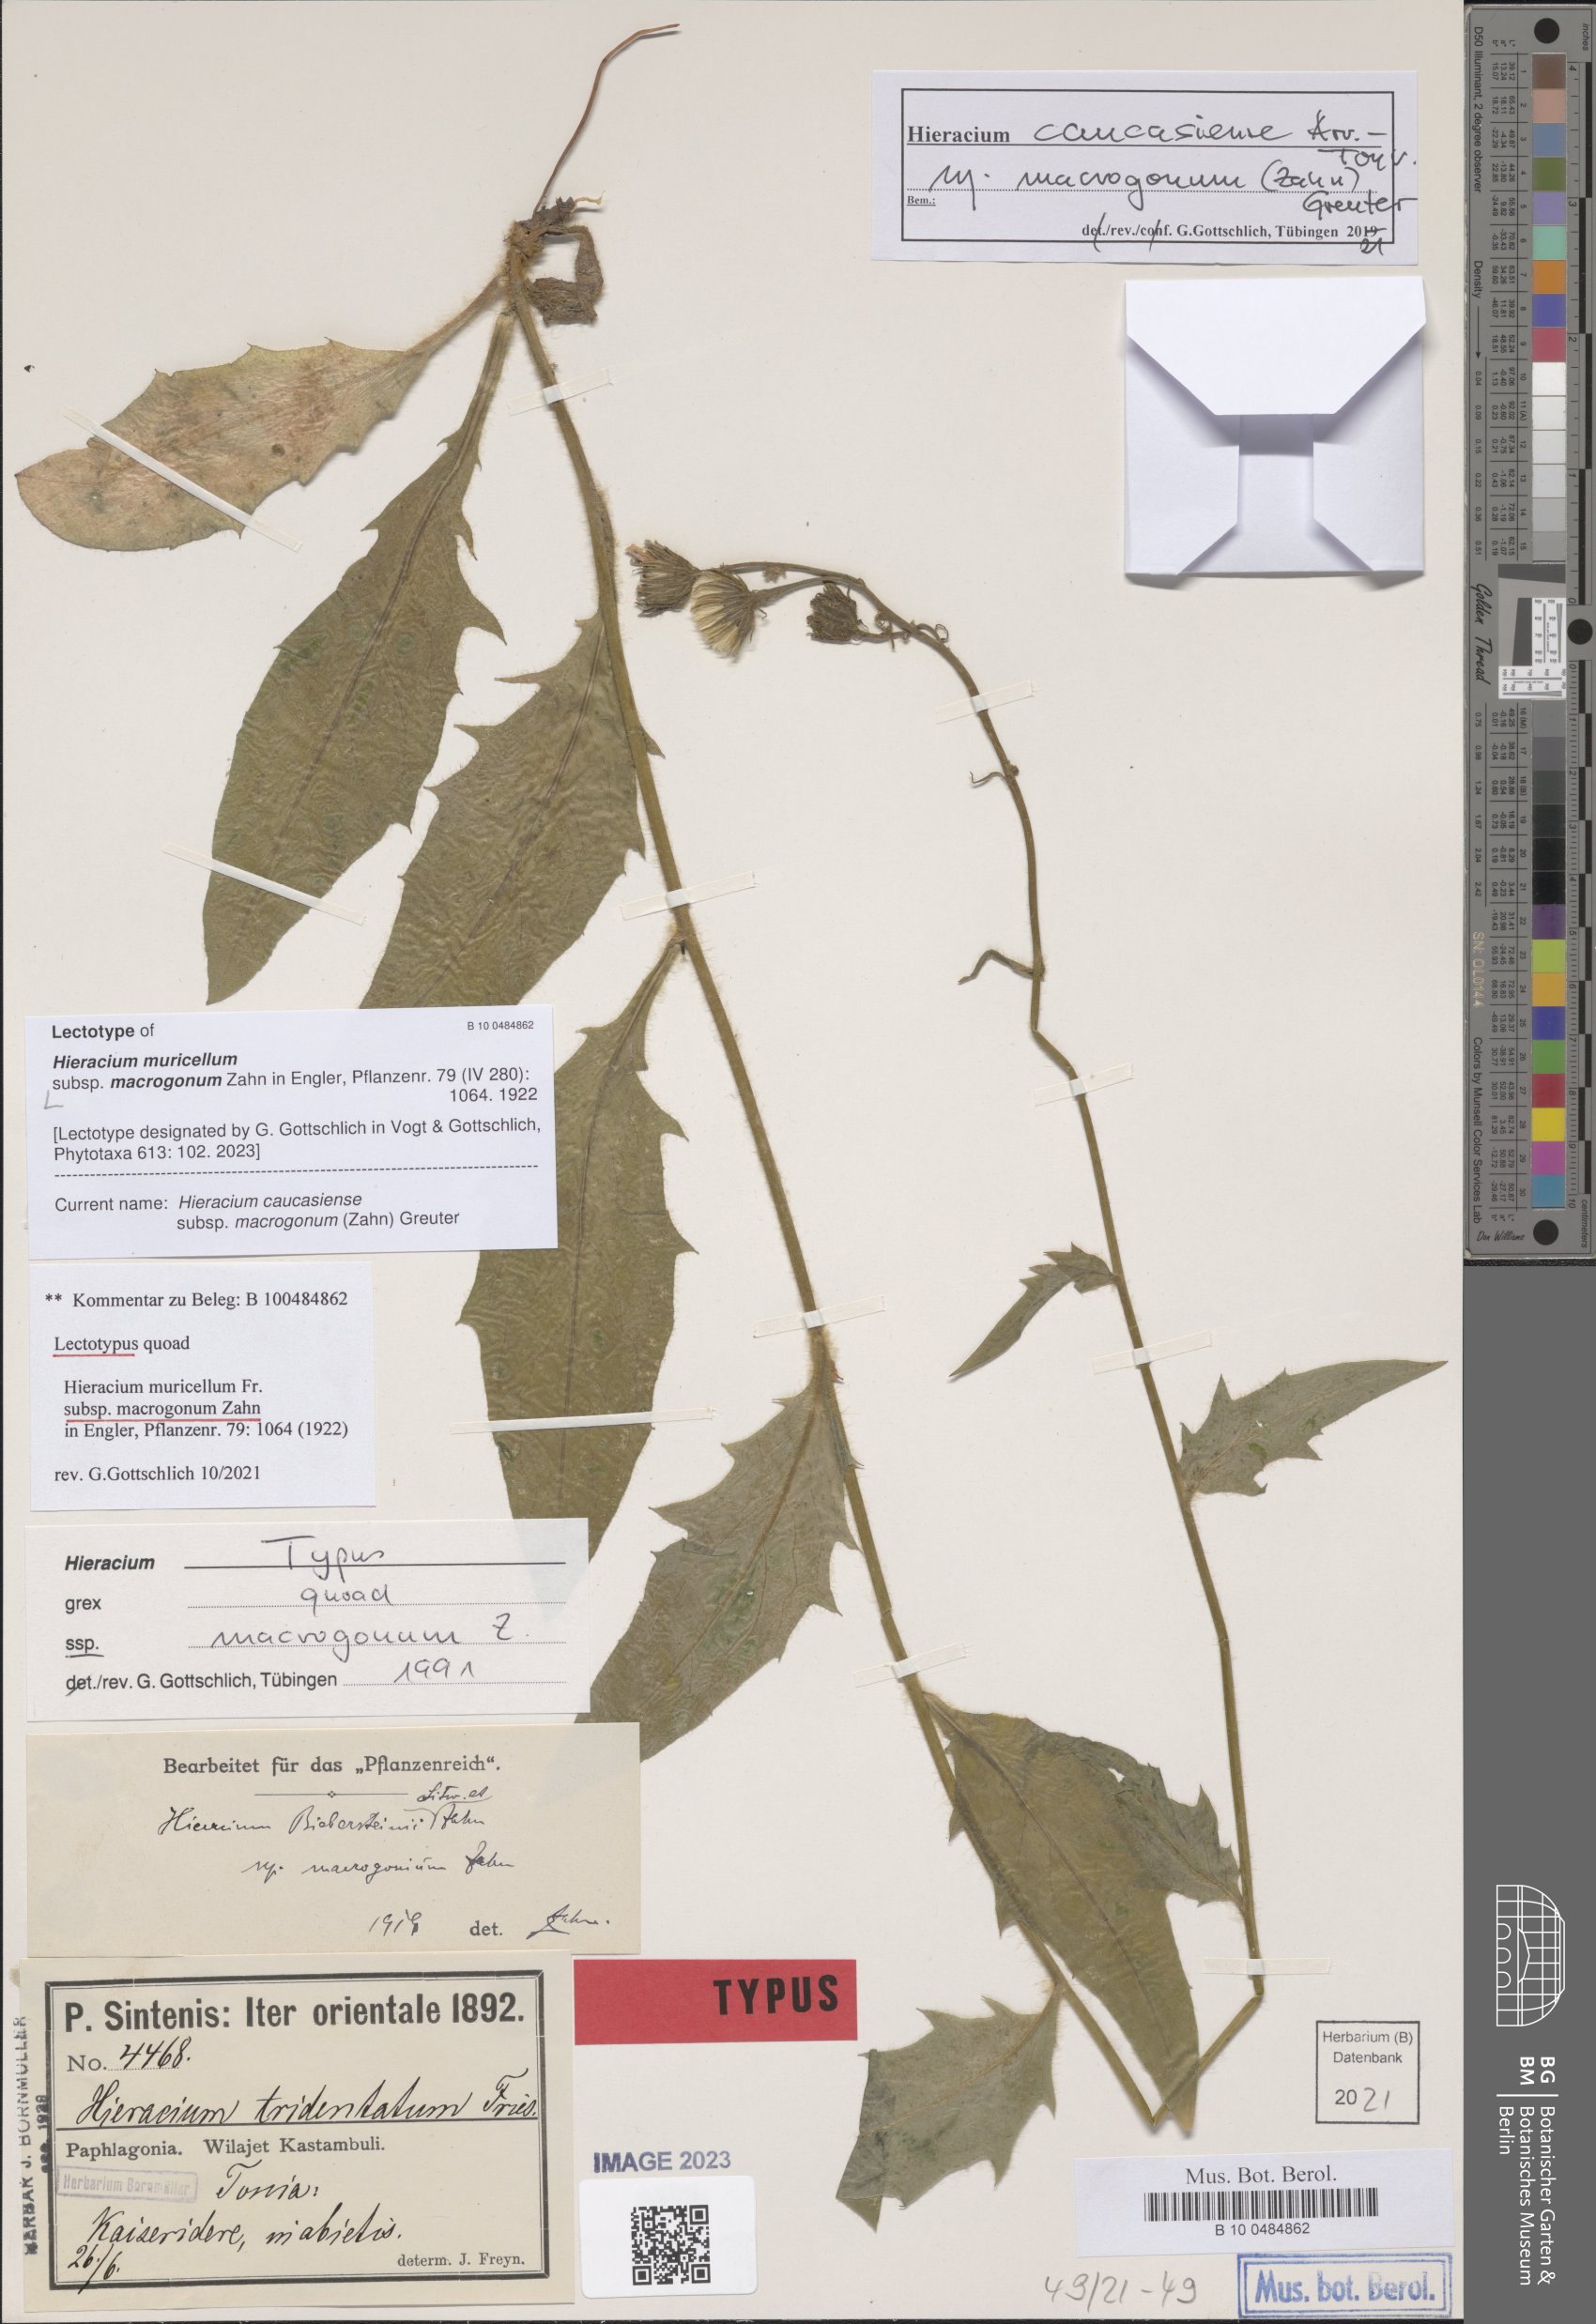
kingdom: Plantae
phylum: Tracheophyta
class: Magnoliopsida
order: Asterales
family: Asteraceae
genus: Hieracium
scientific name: Hieracium caucasiense
